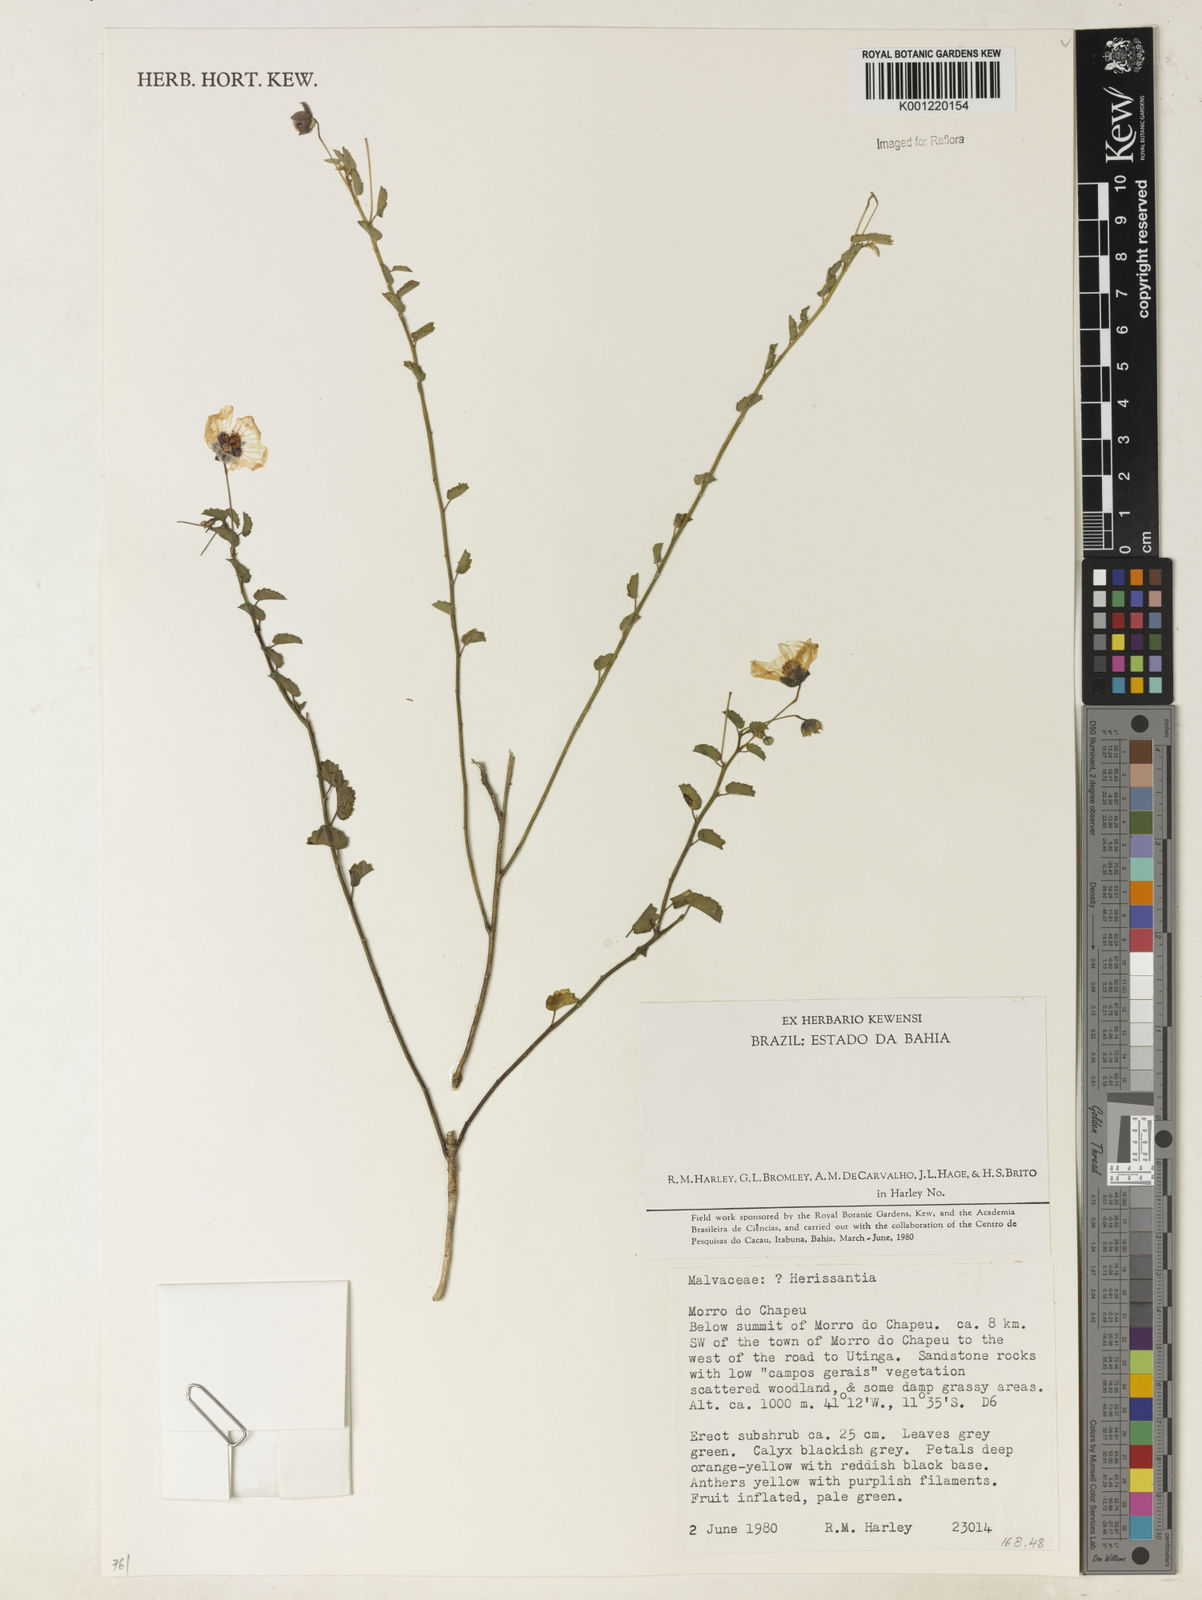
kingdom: Plantae
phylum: Tracheophyta
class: Magnoliopsida
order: Malvales
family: Malvaceae
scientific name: Malvaceae
